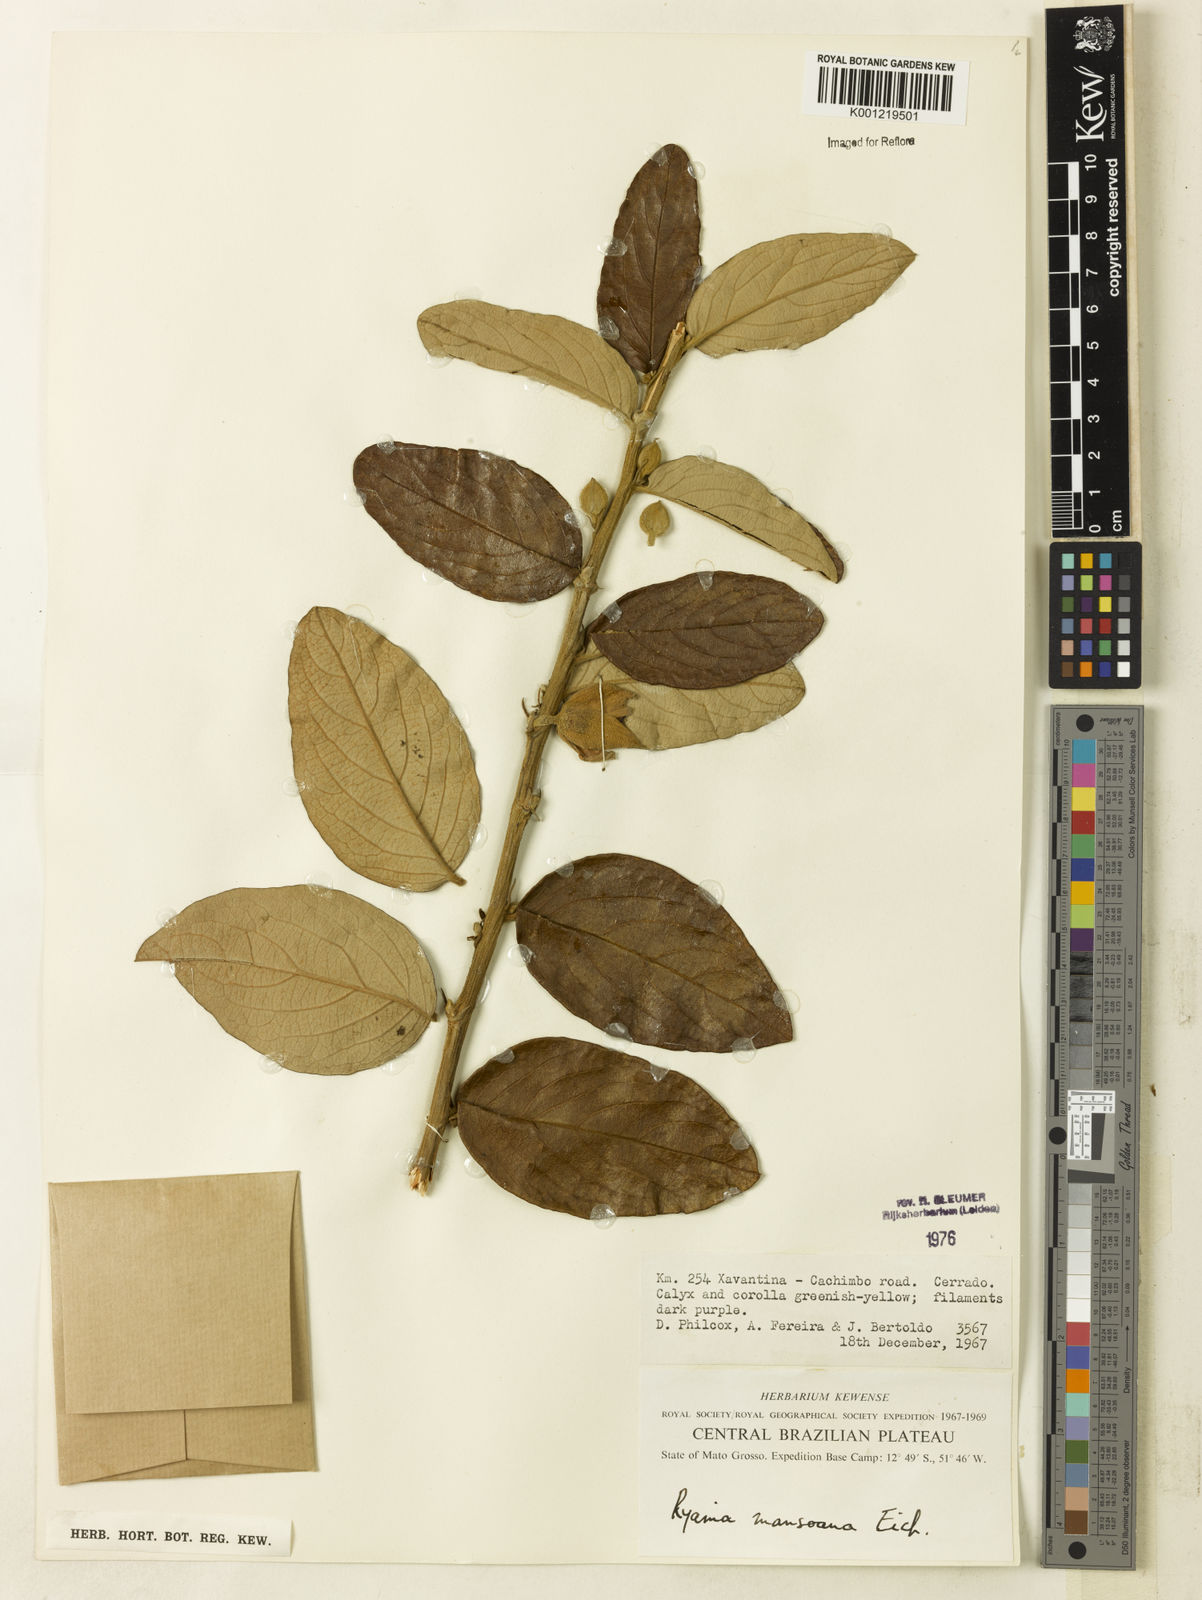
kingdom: Plantae
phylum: Tracheophyta
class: Magnoliopsida
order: Malpighiales
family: Salicaceae
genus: Ryania
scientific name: Ryania mansoana
